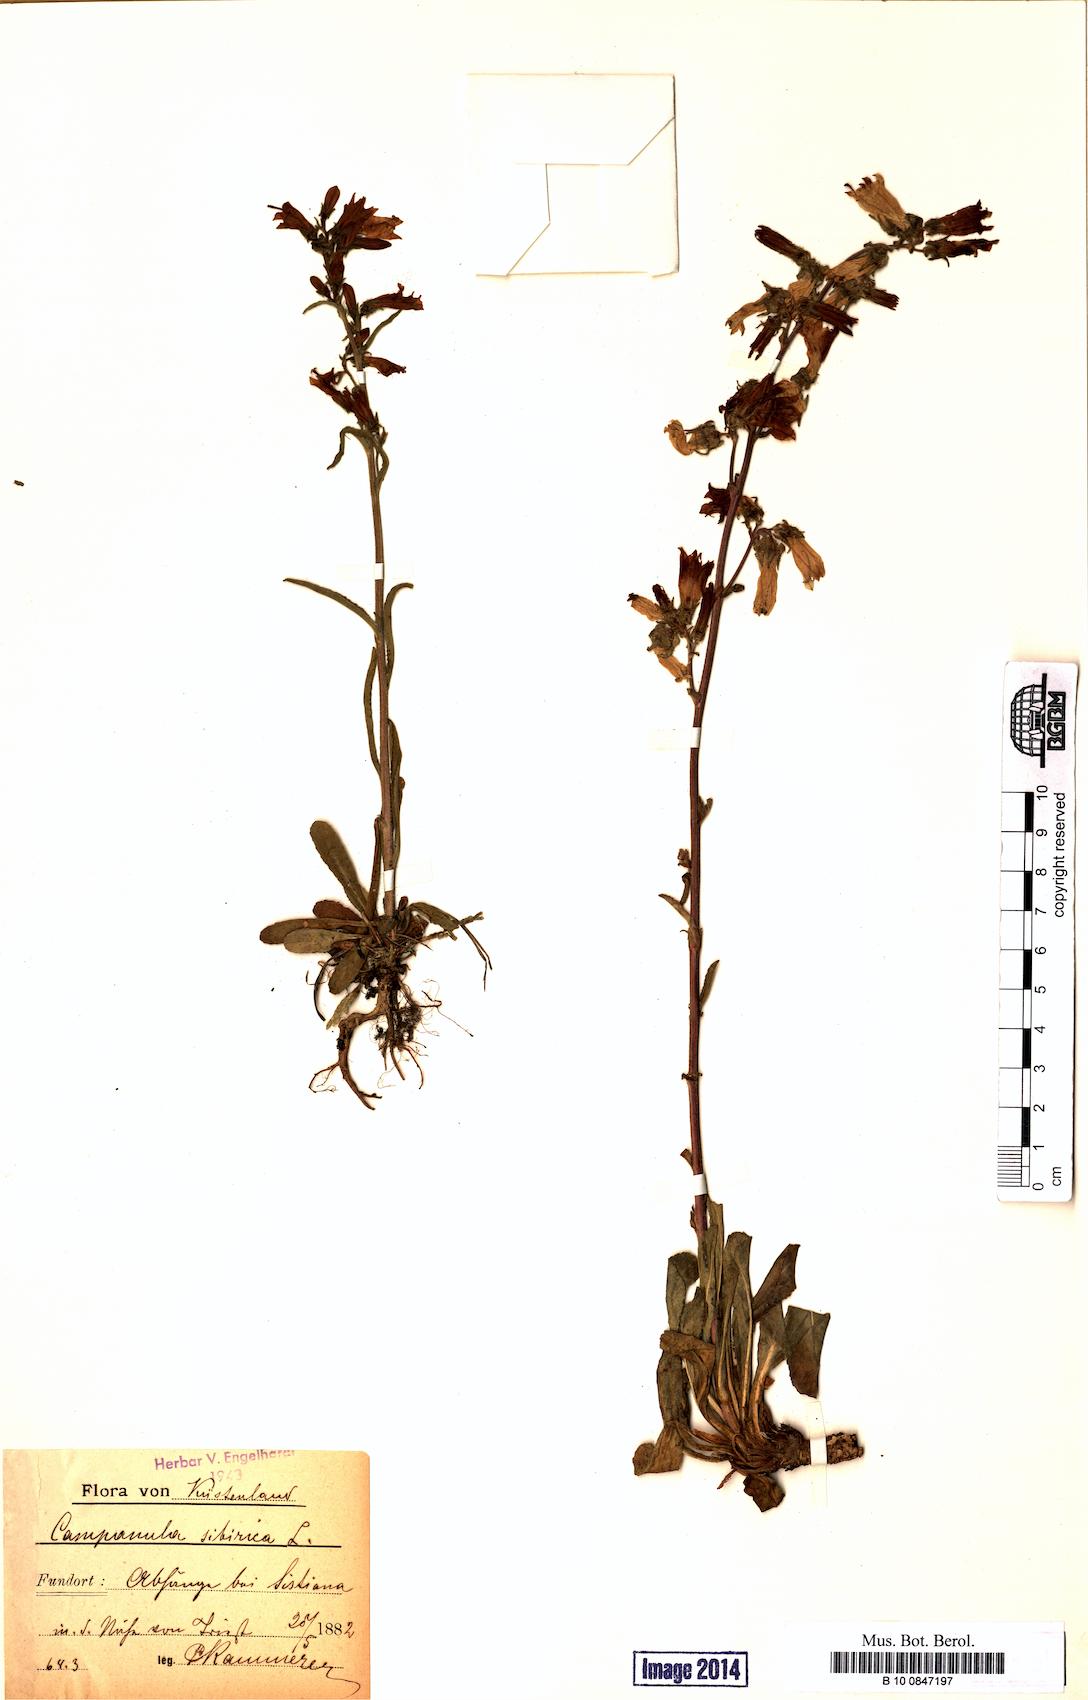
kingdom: Plantae
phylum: Tracheophyta
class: Magnoliopsida
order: Asterales
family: Campanulaceae
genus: Campanula
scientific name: Campanula sibirica
